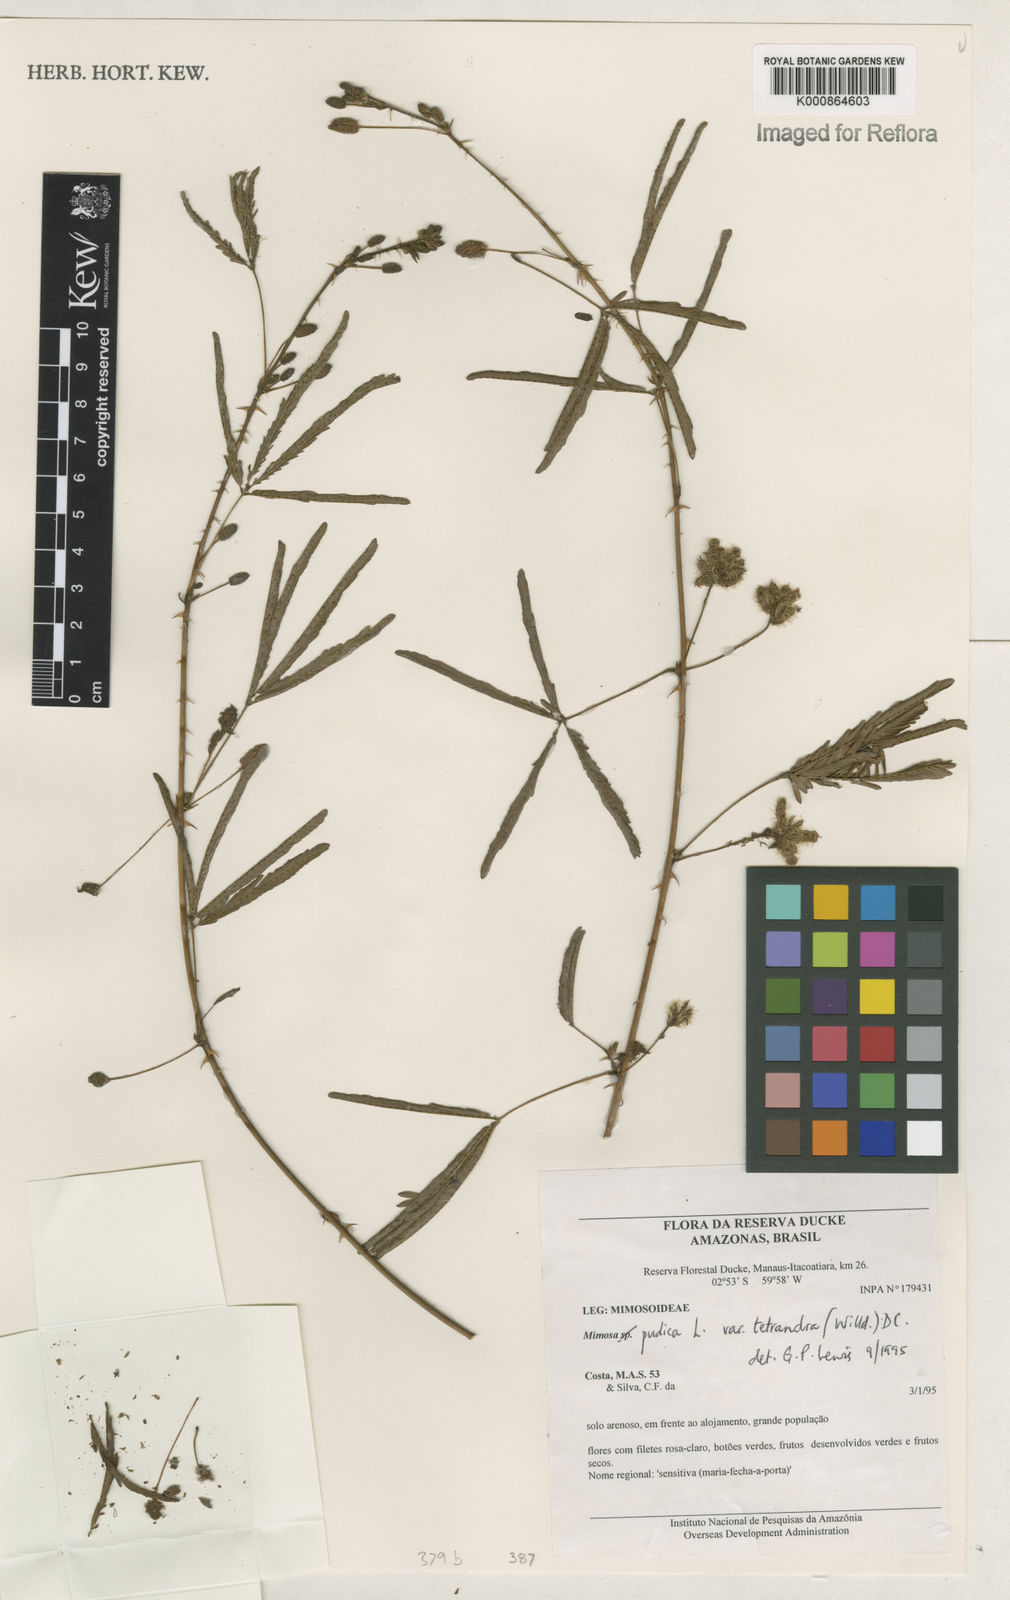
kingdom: Plantae
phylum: Tracheophyta
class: Magnoliopsida
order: Fabales
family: Fabaceae
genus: Mimosa
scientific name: Mimosa pudica
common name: Sensitive plant
